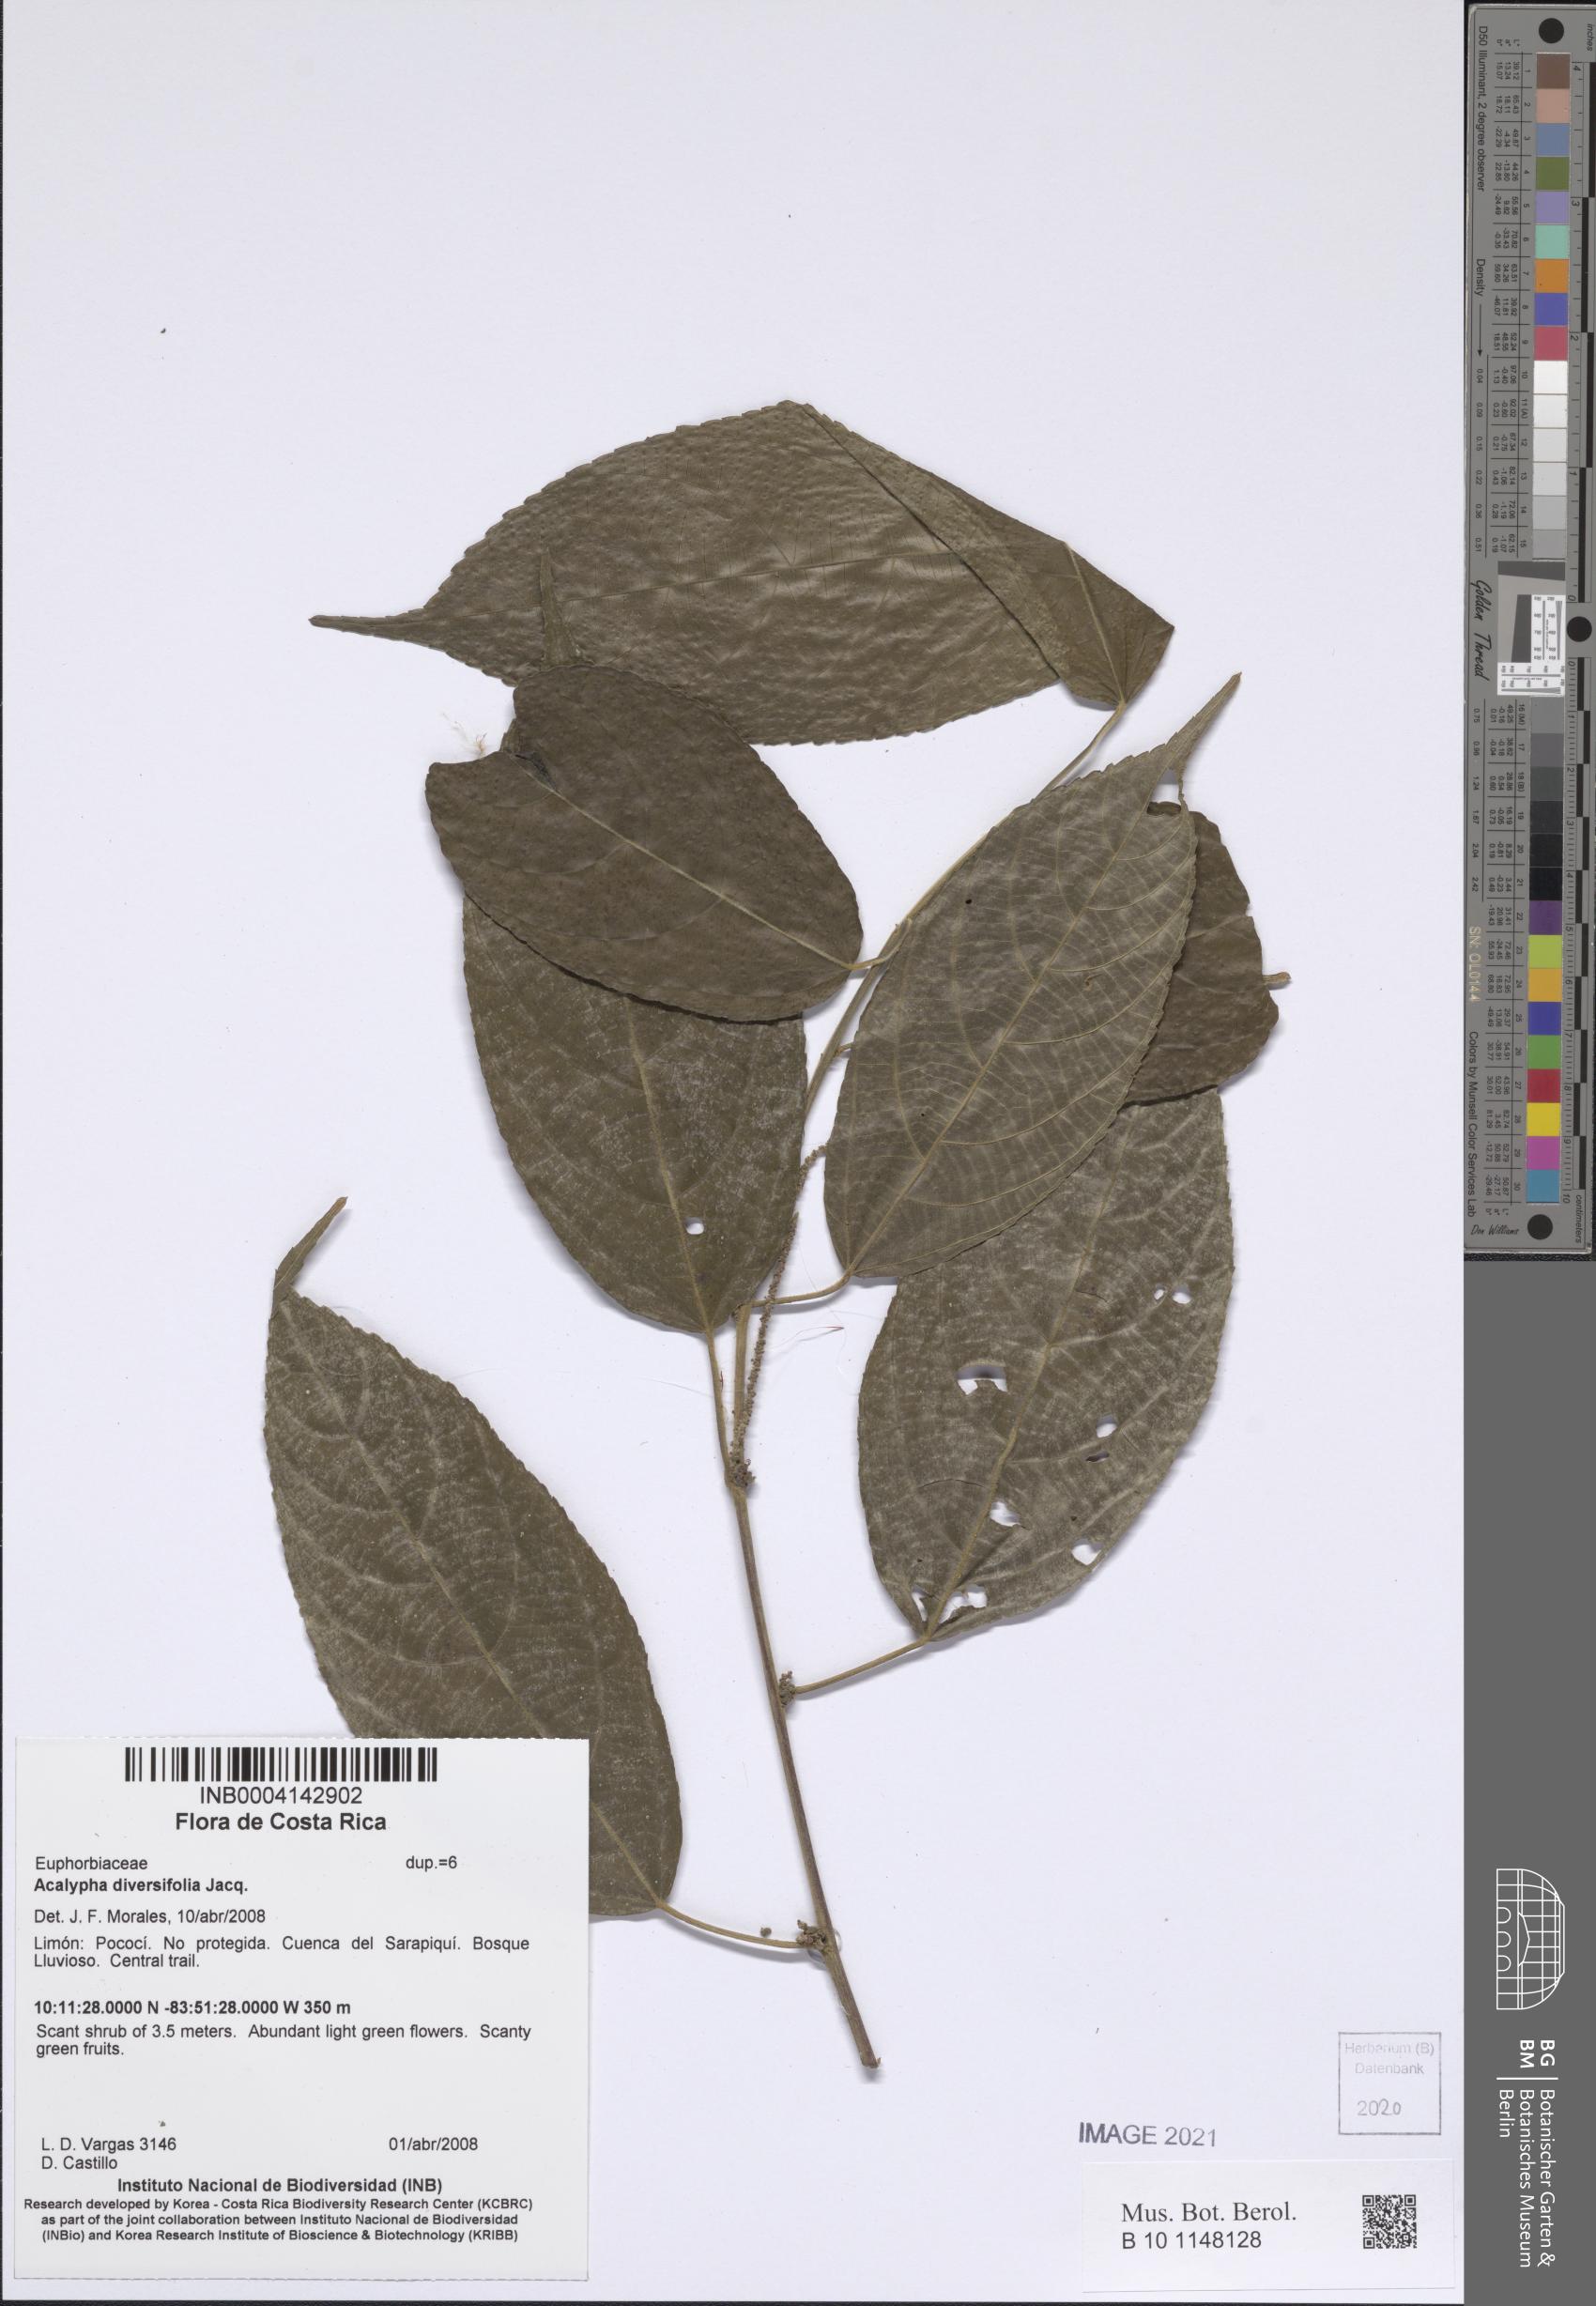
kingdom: Plantae
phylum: Tracheophyta
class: Magnoliopsida
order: Malpighiales
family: Euphorbiaceae
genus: Acalypha
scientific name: Acalypha diversifolia
